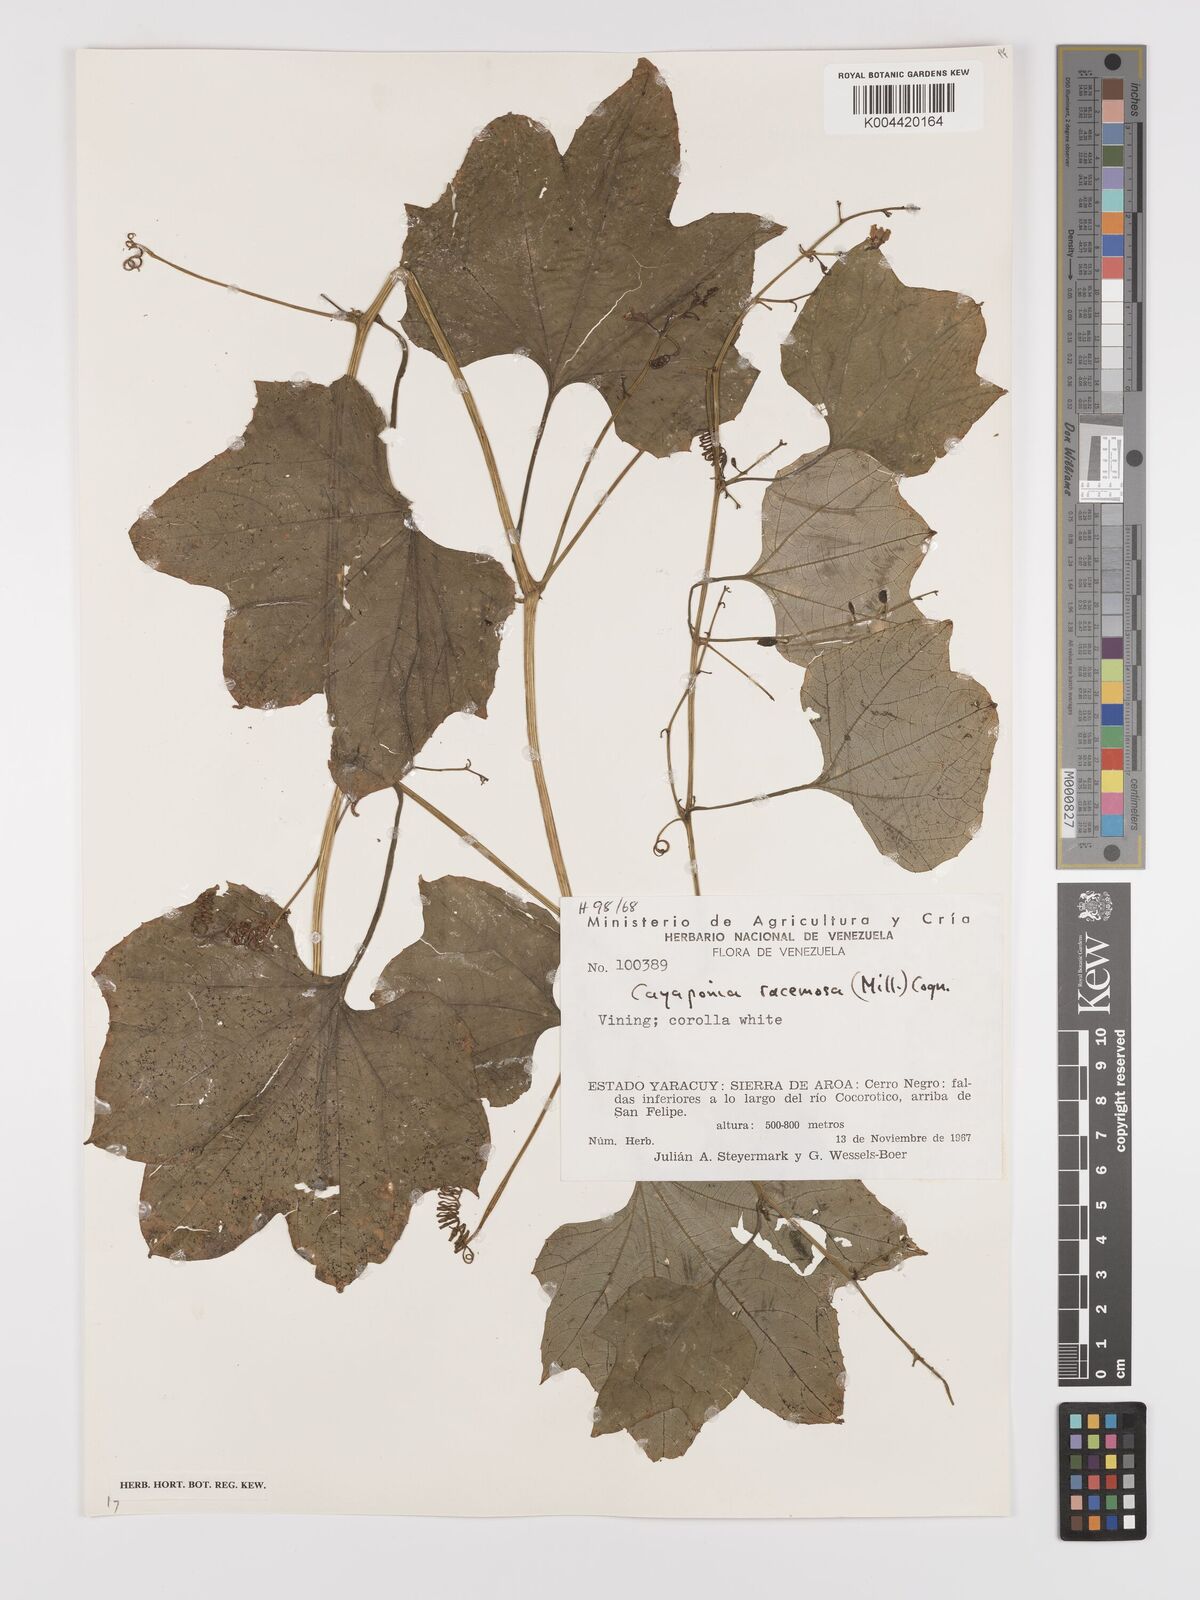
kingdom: Plantae
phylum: Tracheophyta
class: Magnoliopsida
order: Cucurbitales
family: Cucurbitaceae
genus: Cayaponia
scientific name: Cayaponia racemosa
